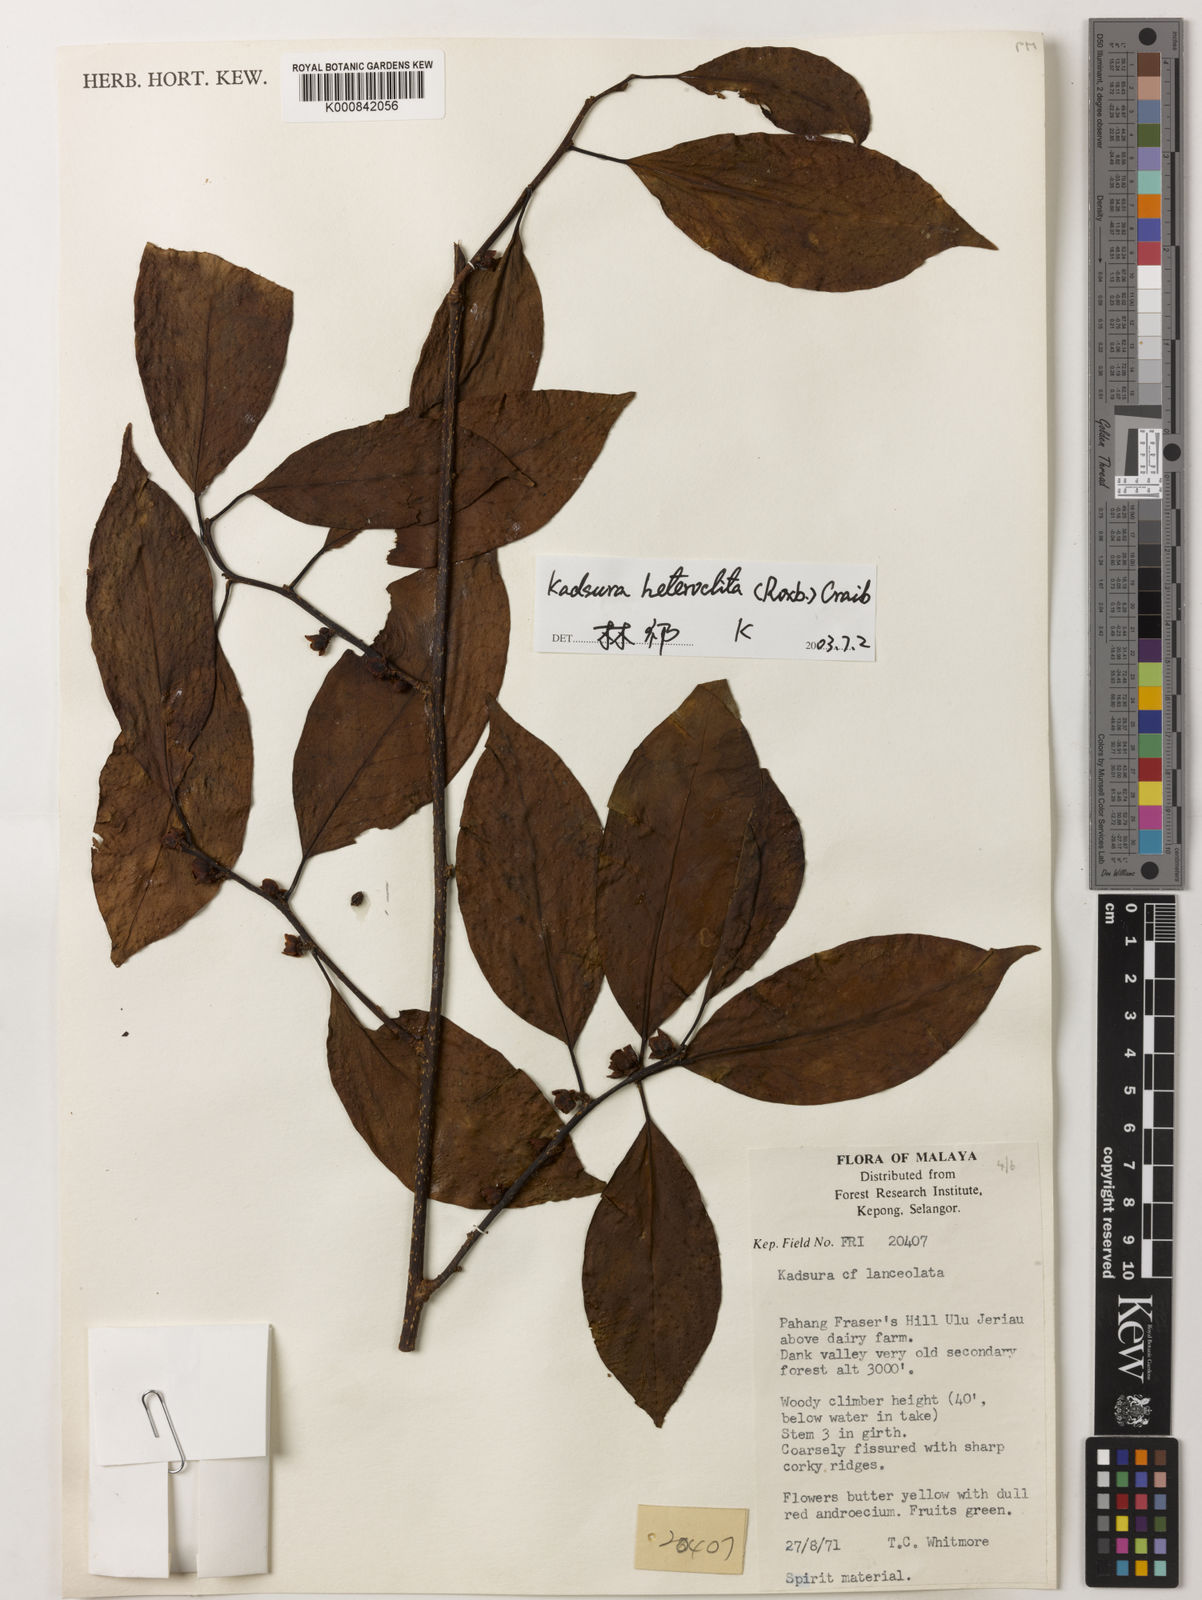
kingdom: Plantae
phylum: Tracheophyta
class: Magnoliopsida
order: Austrobaileyales
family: Schisandraceae
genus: Kadsura
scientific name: Kadsura heteroclita
